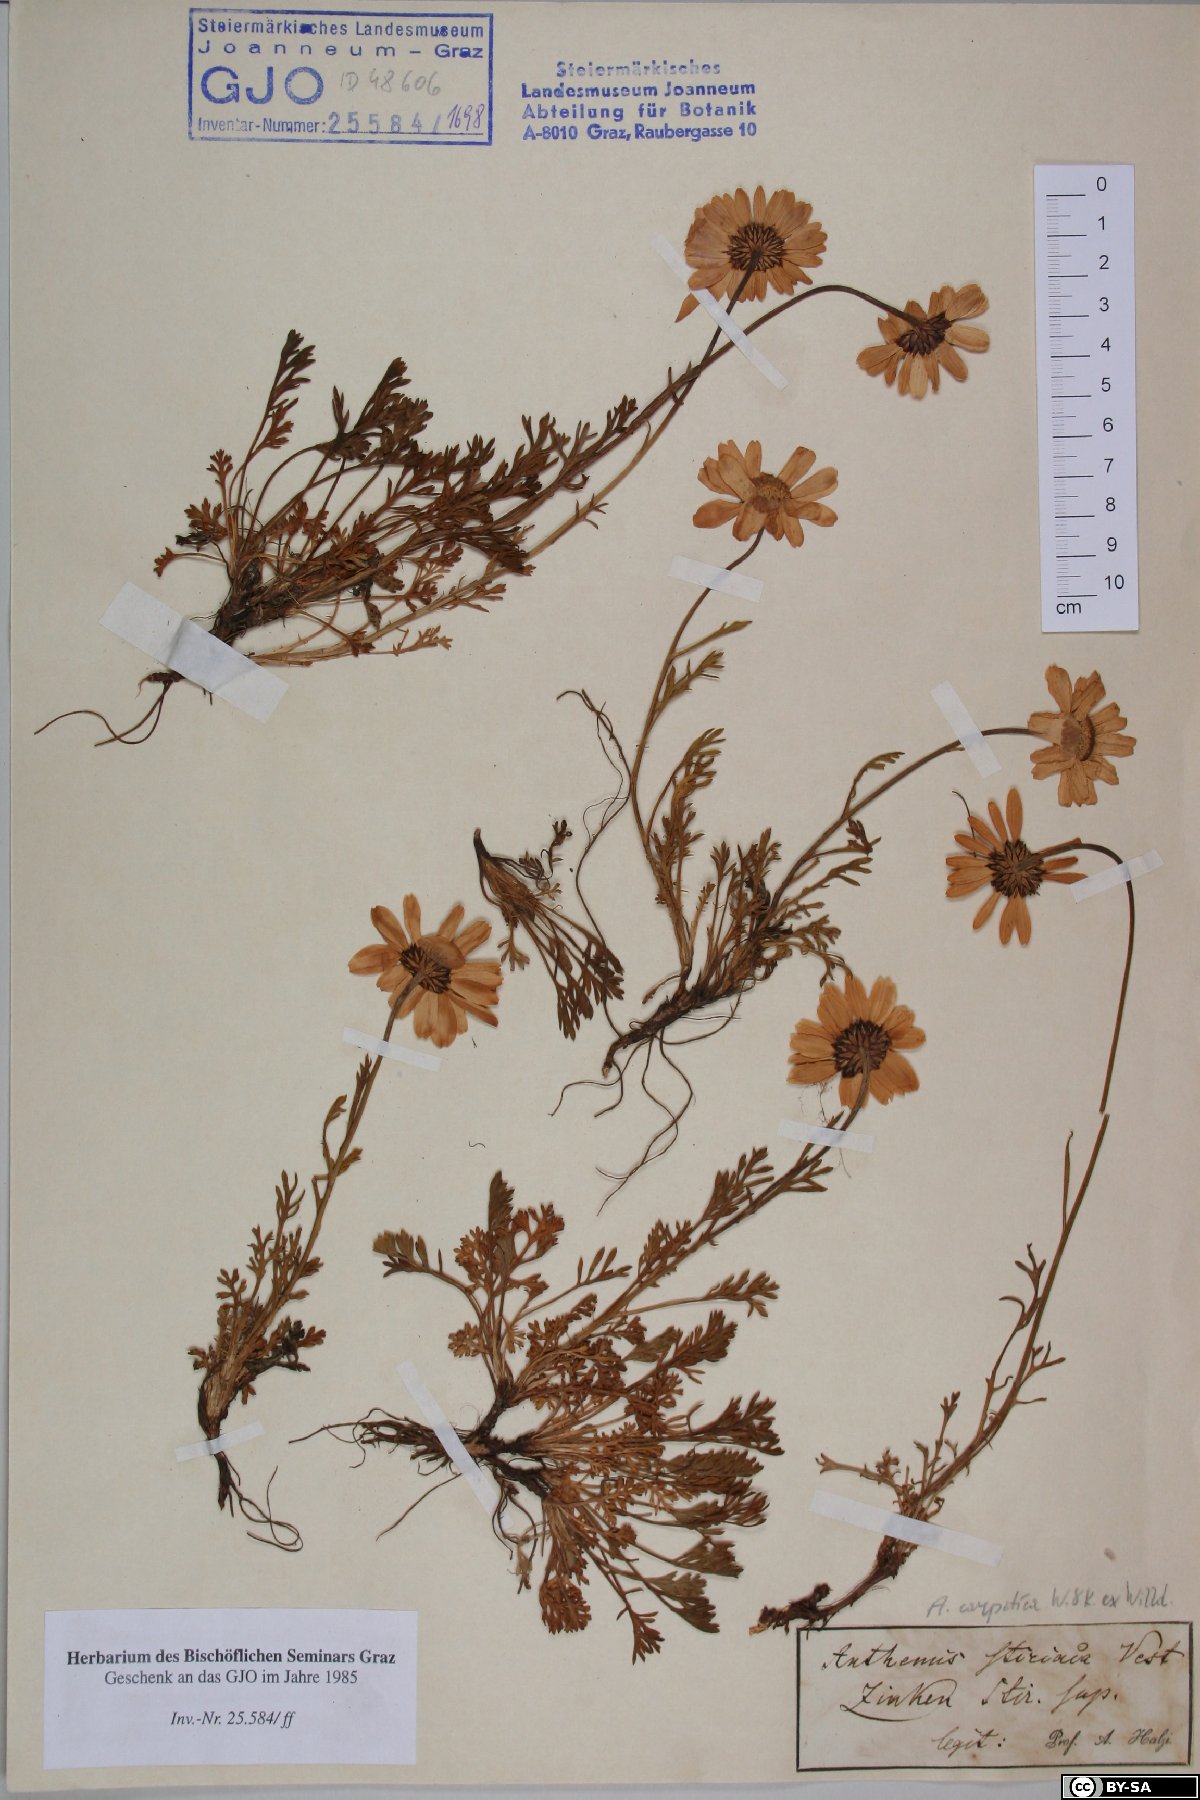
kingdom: Plantae
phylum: Tracheophyta
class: Magnoliopsida
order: Asterales
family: Asteraceae
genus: Anthemis
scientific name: Anthemis cretica
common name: Mountain dog-daisy
